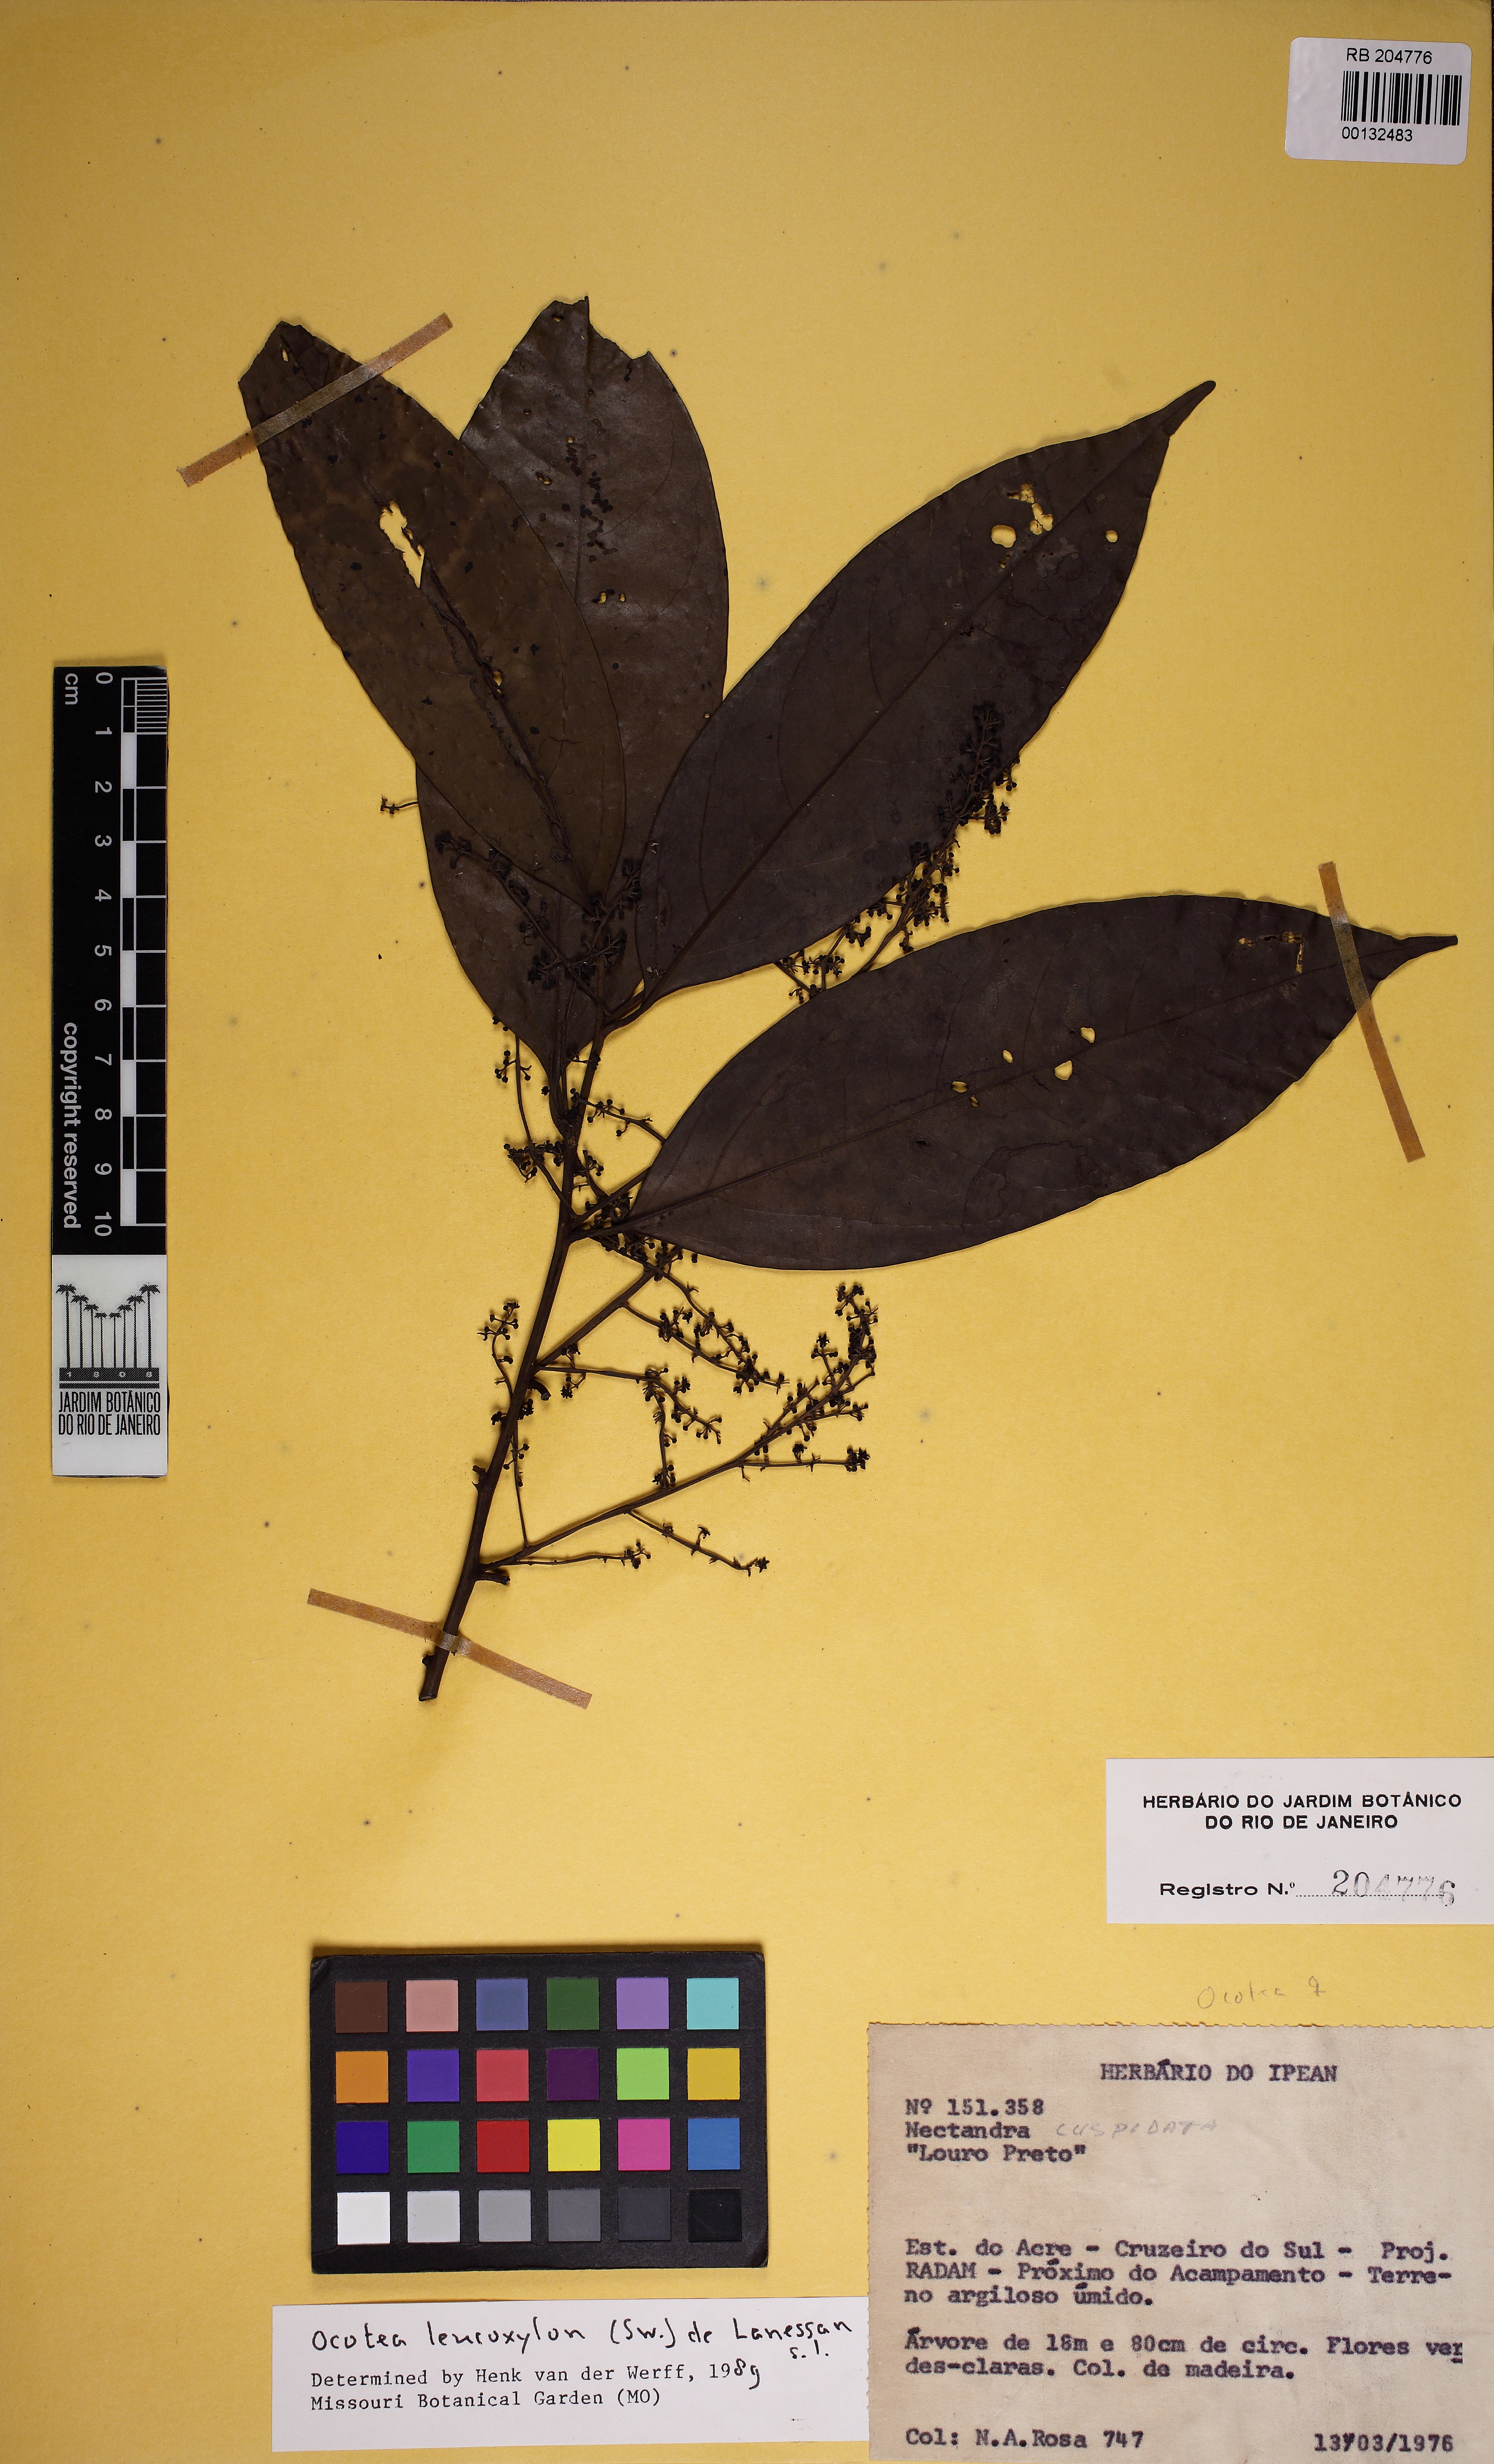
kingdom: Plantae
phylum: Tracheophyta
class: Magnoliopsida
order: Laurales
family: Lauraceae
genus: Ocotea
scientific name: Ocotea leucoxylon
